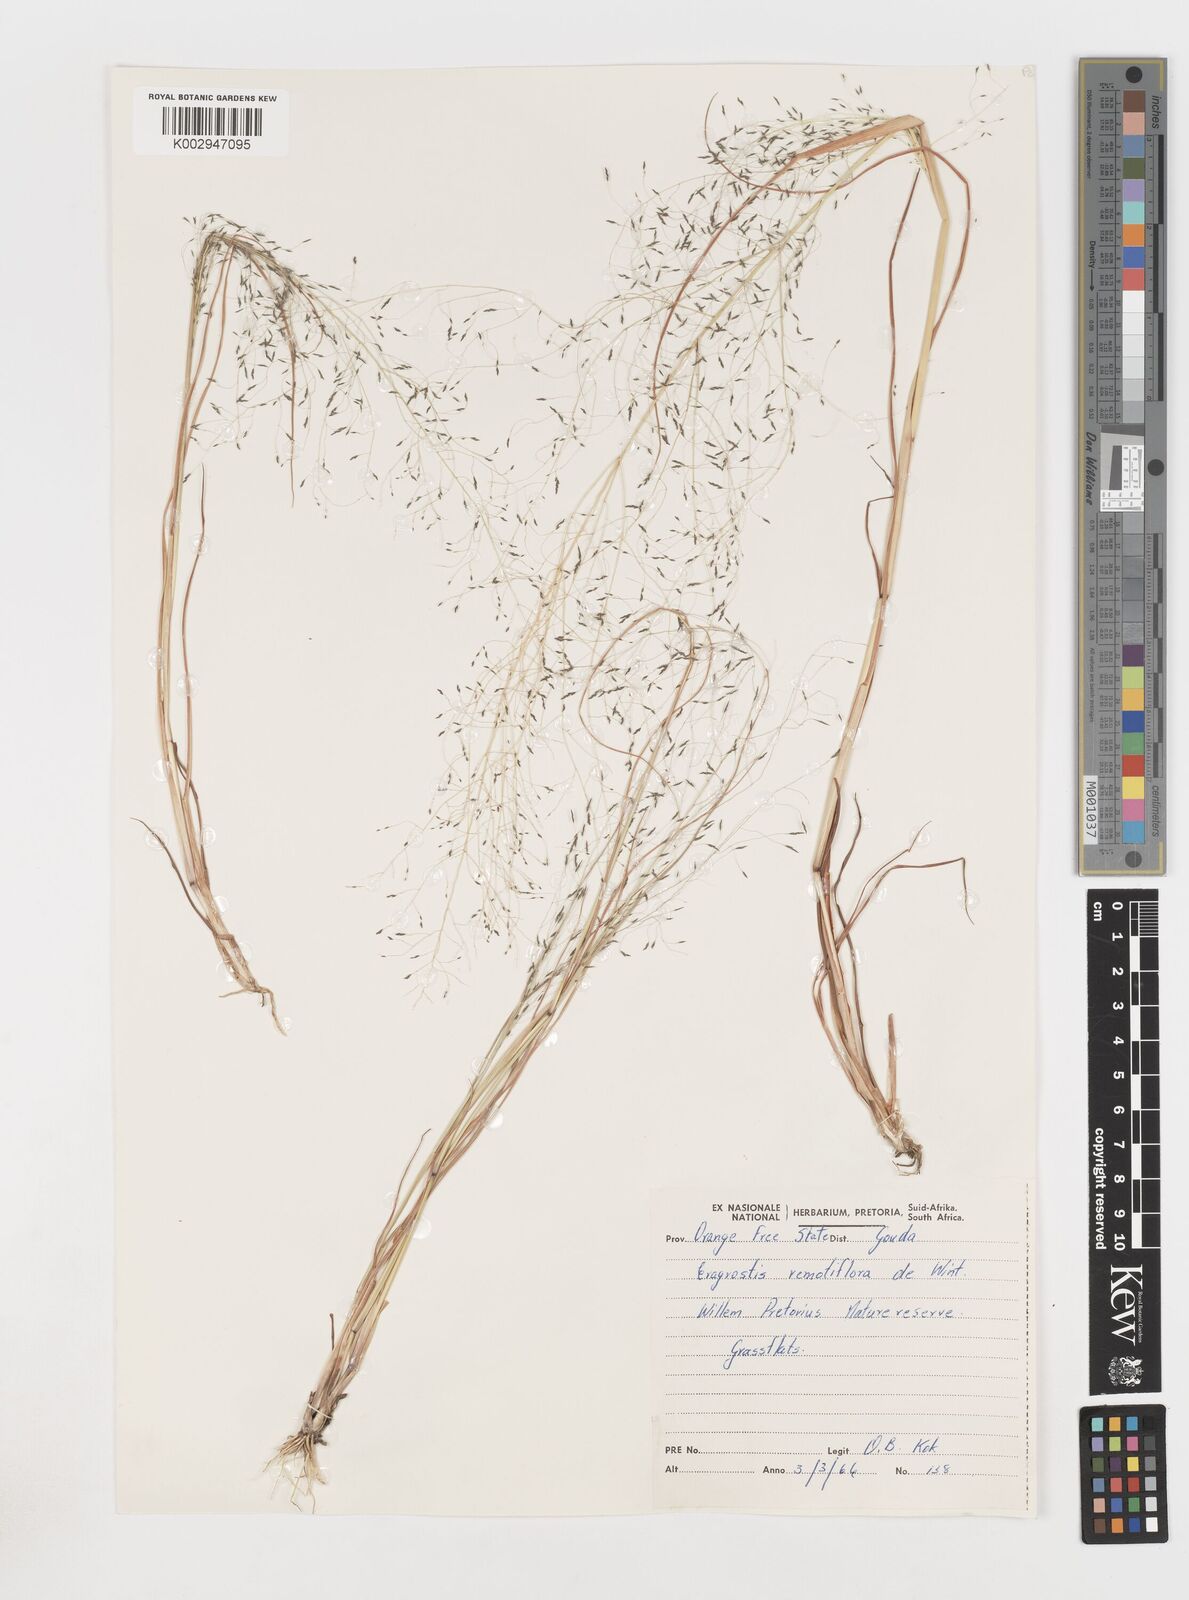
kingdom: Plantae
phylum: Tracheophyta
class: Liliopsida
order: Poales
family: Poaceae
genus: Eragrostis
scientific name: Eragrostis remotiflora
